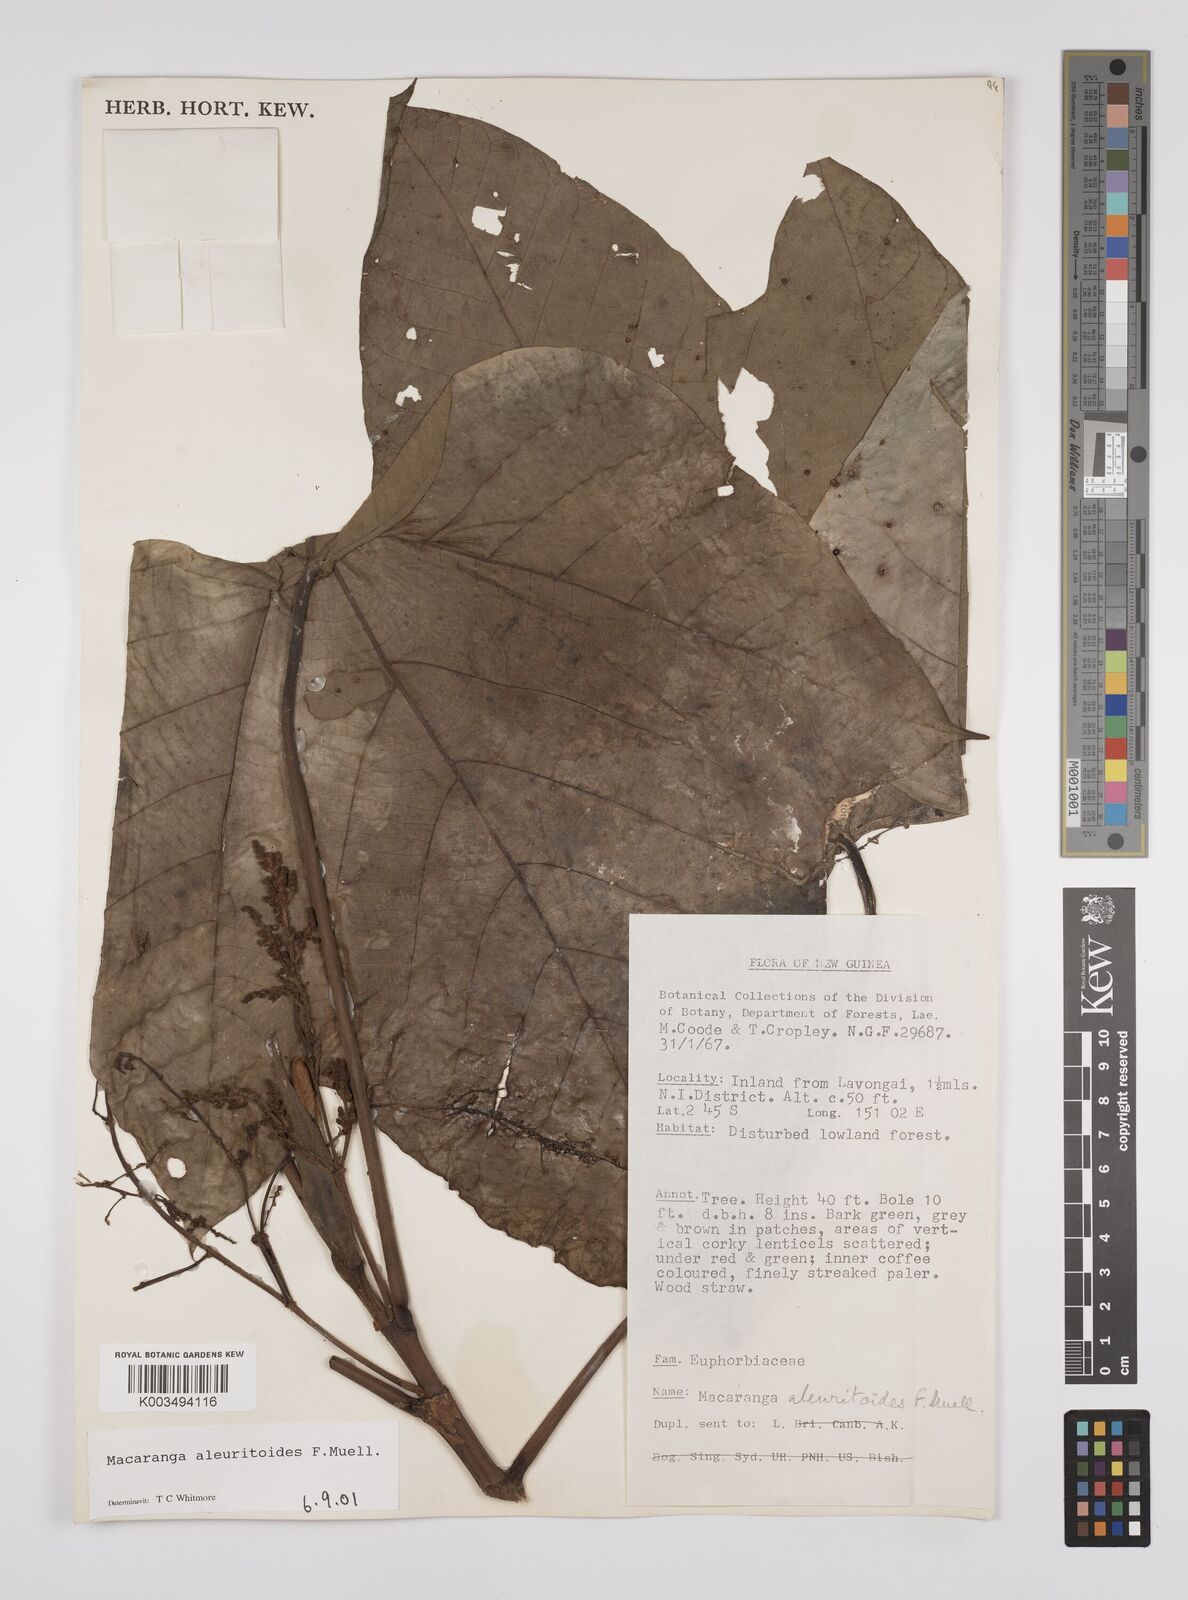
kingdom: Plantae
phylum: Tracheophyta
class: Magnoliopsida
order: Malpighiales
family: Euphorbiaceae
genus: Macaranga
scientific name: Macaranga aleuritoides
